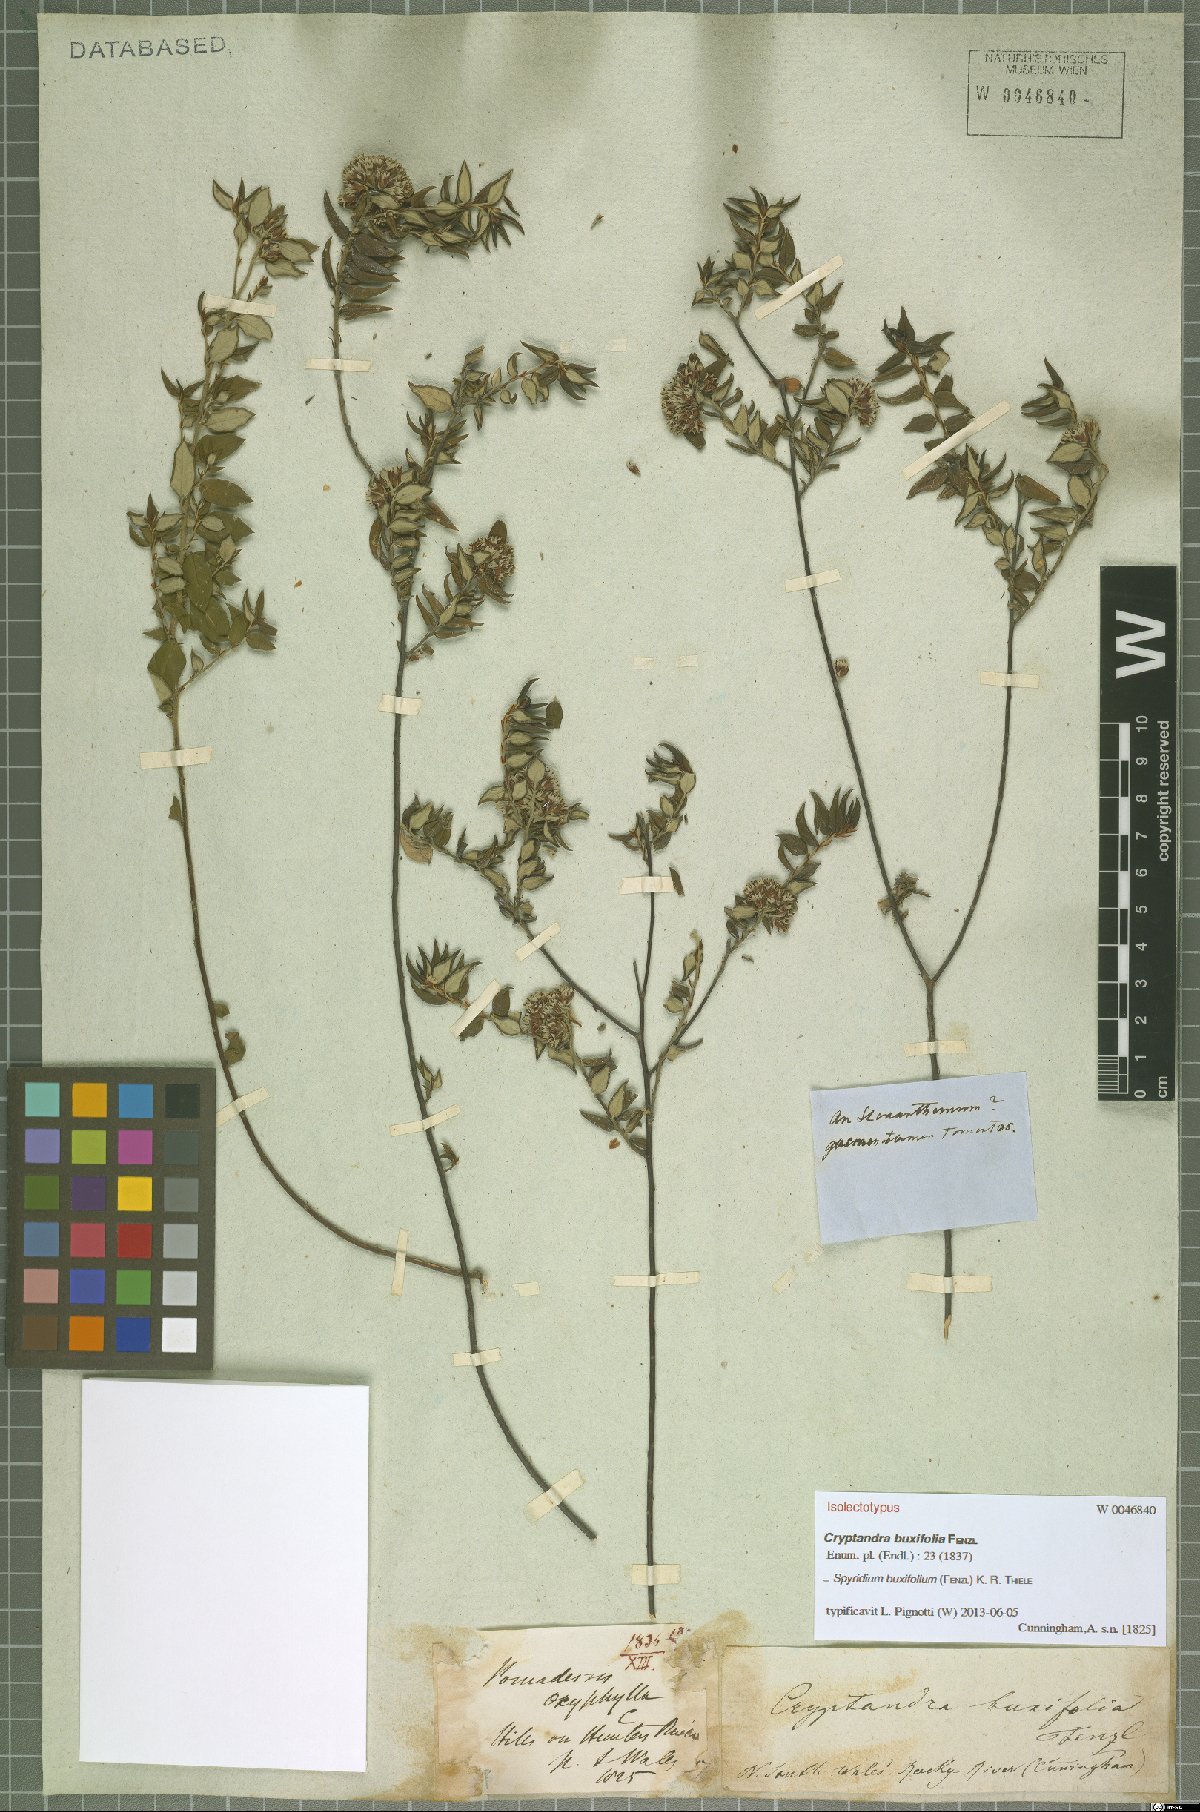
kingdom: Plantae
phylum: Tracheophyta
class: Magnoliopsida
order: Rosales
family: Rhamnaceae
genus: Spyridium
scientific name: Spyridium buxifolium
